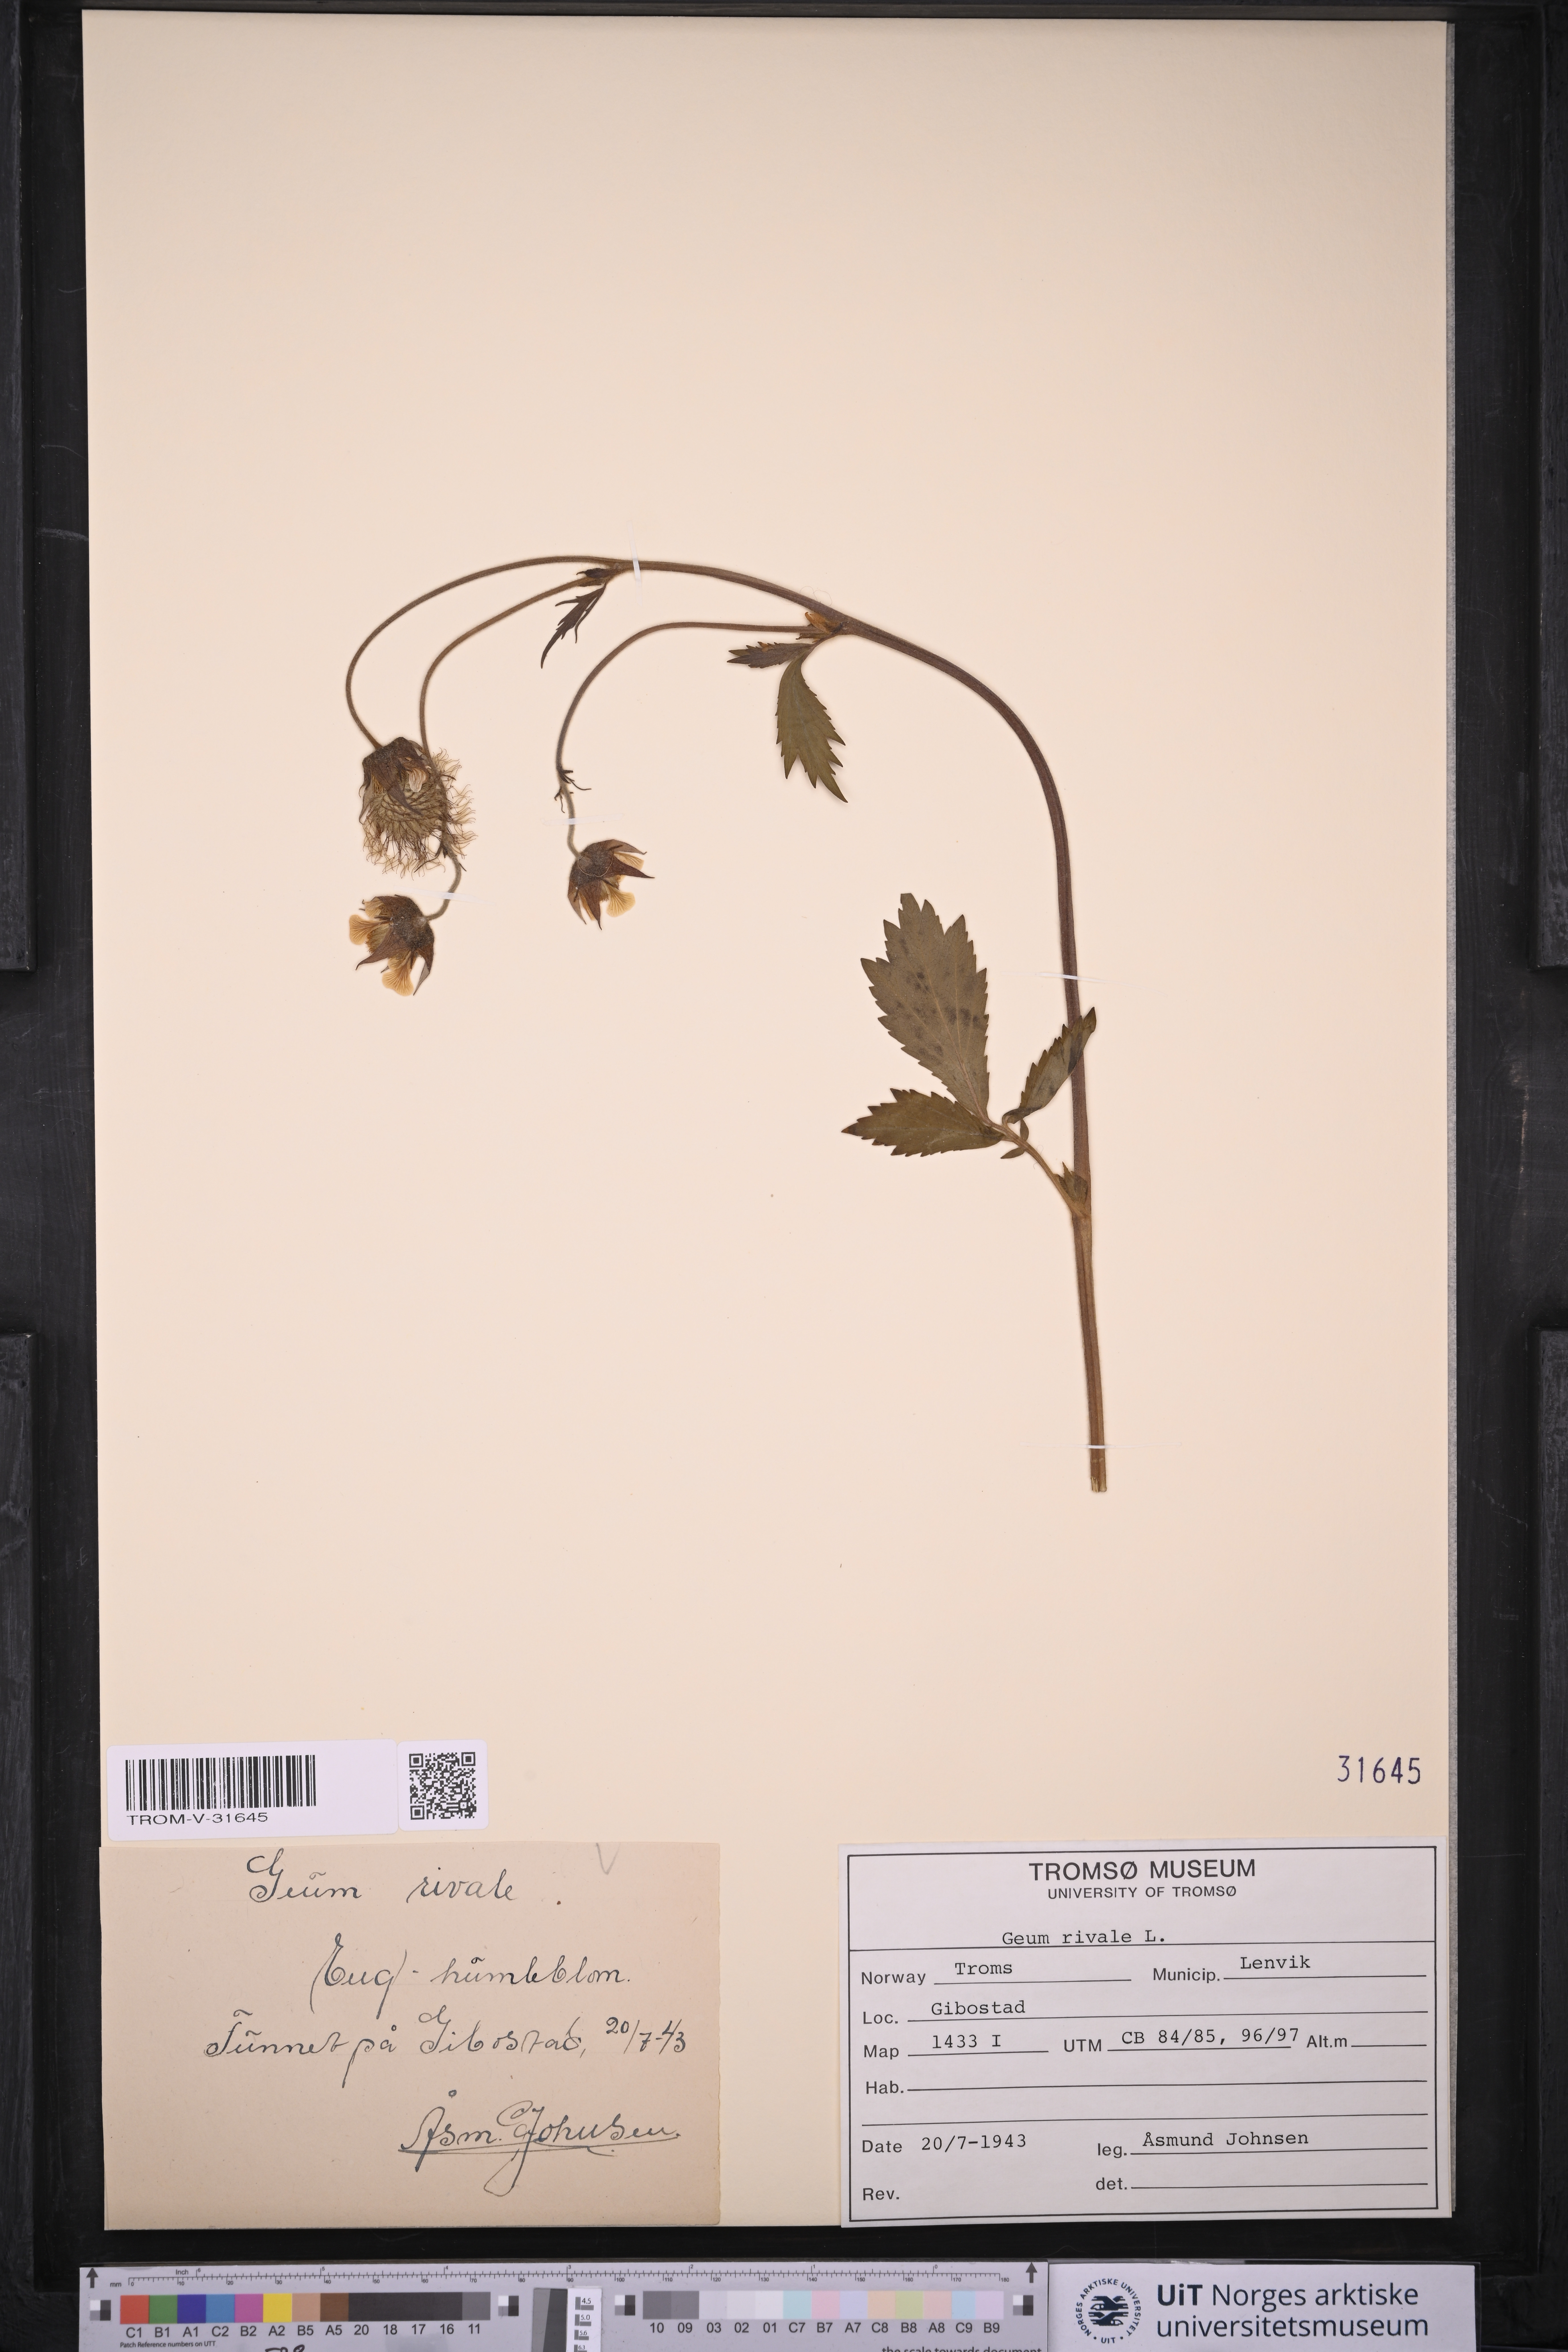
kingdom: Plantae
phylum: Tracheophyta
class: Magnoliopsida
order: Rosales
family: Rosaceae
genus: Geum
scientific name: Geum rivale
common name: Water avens
